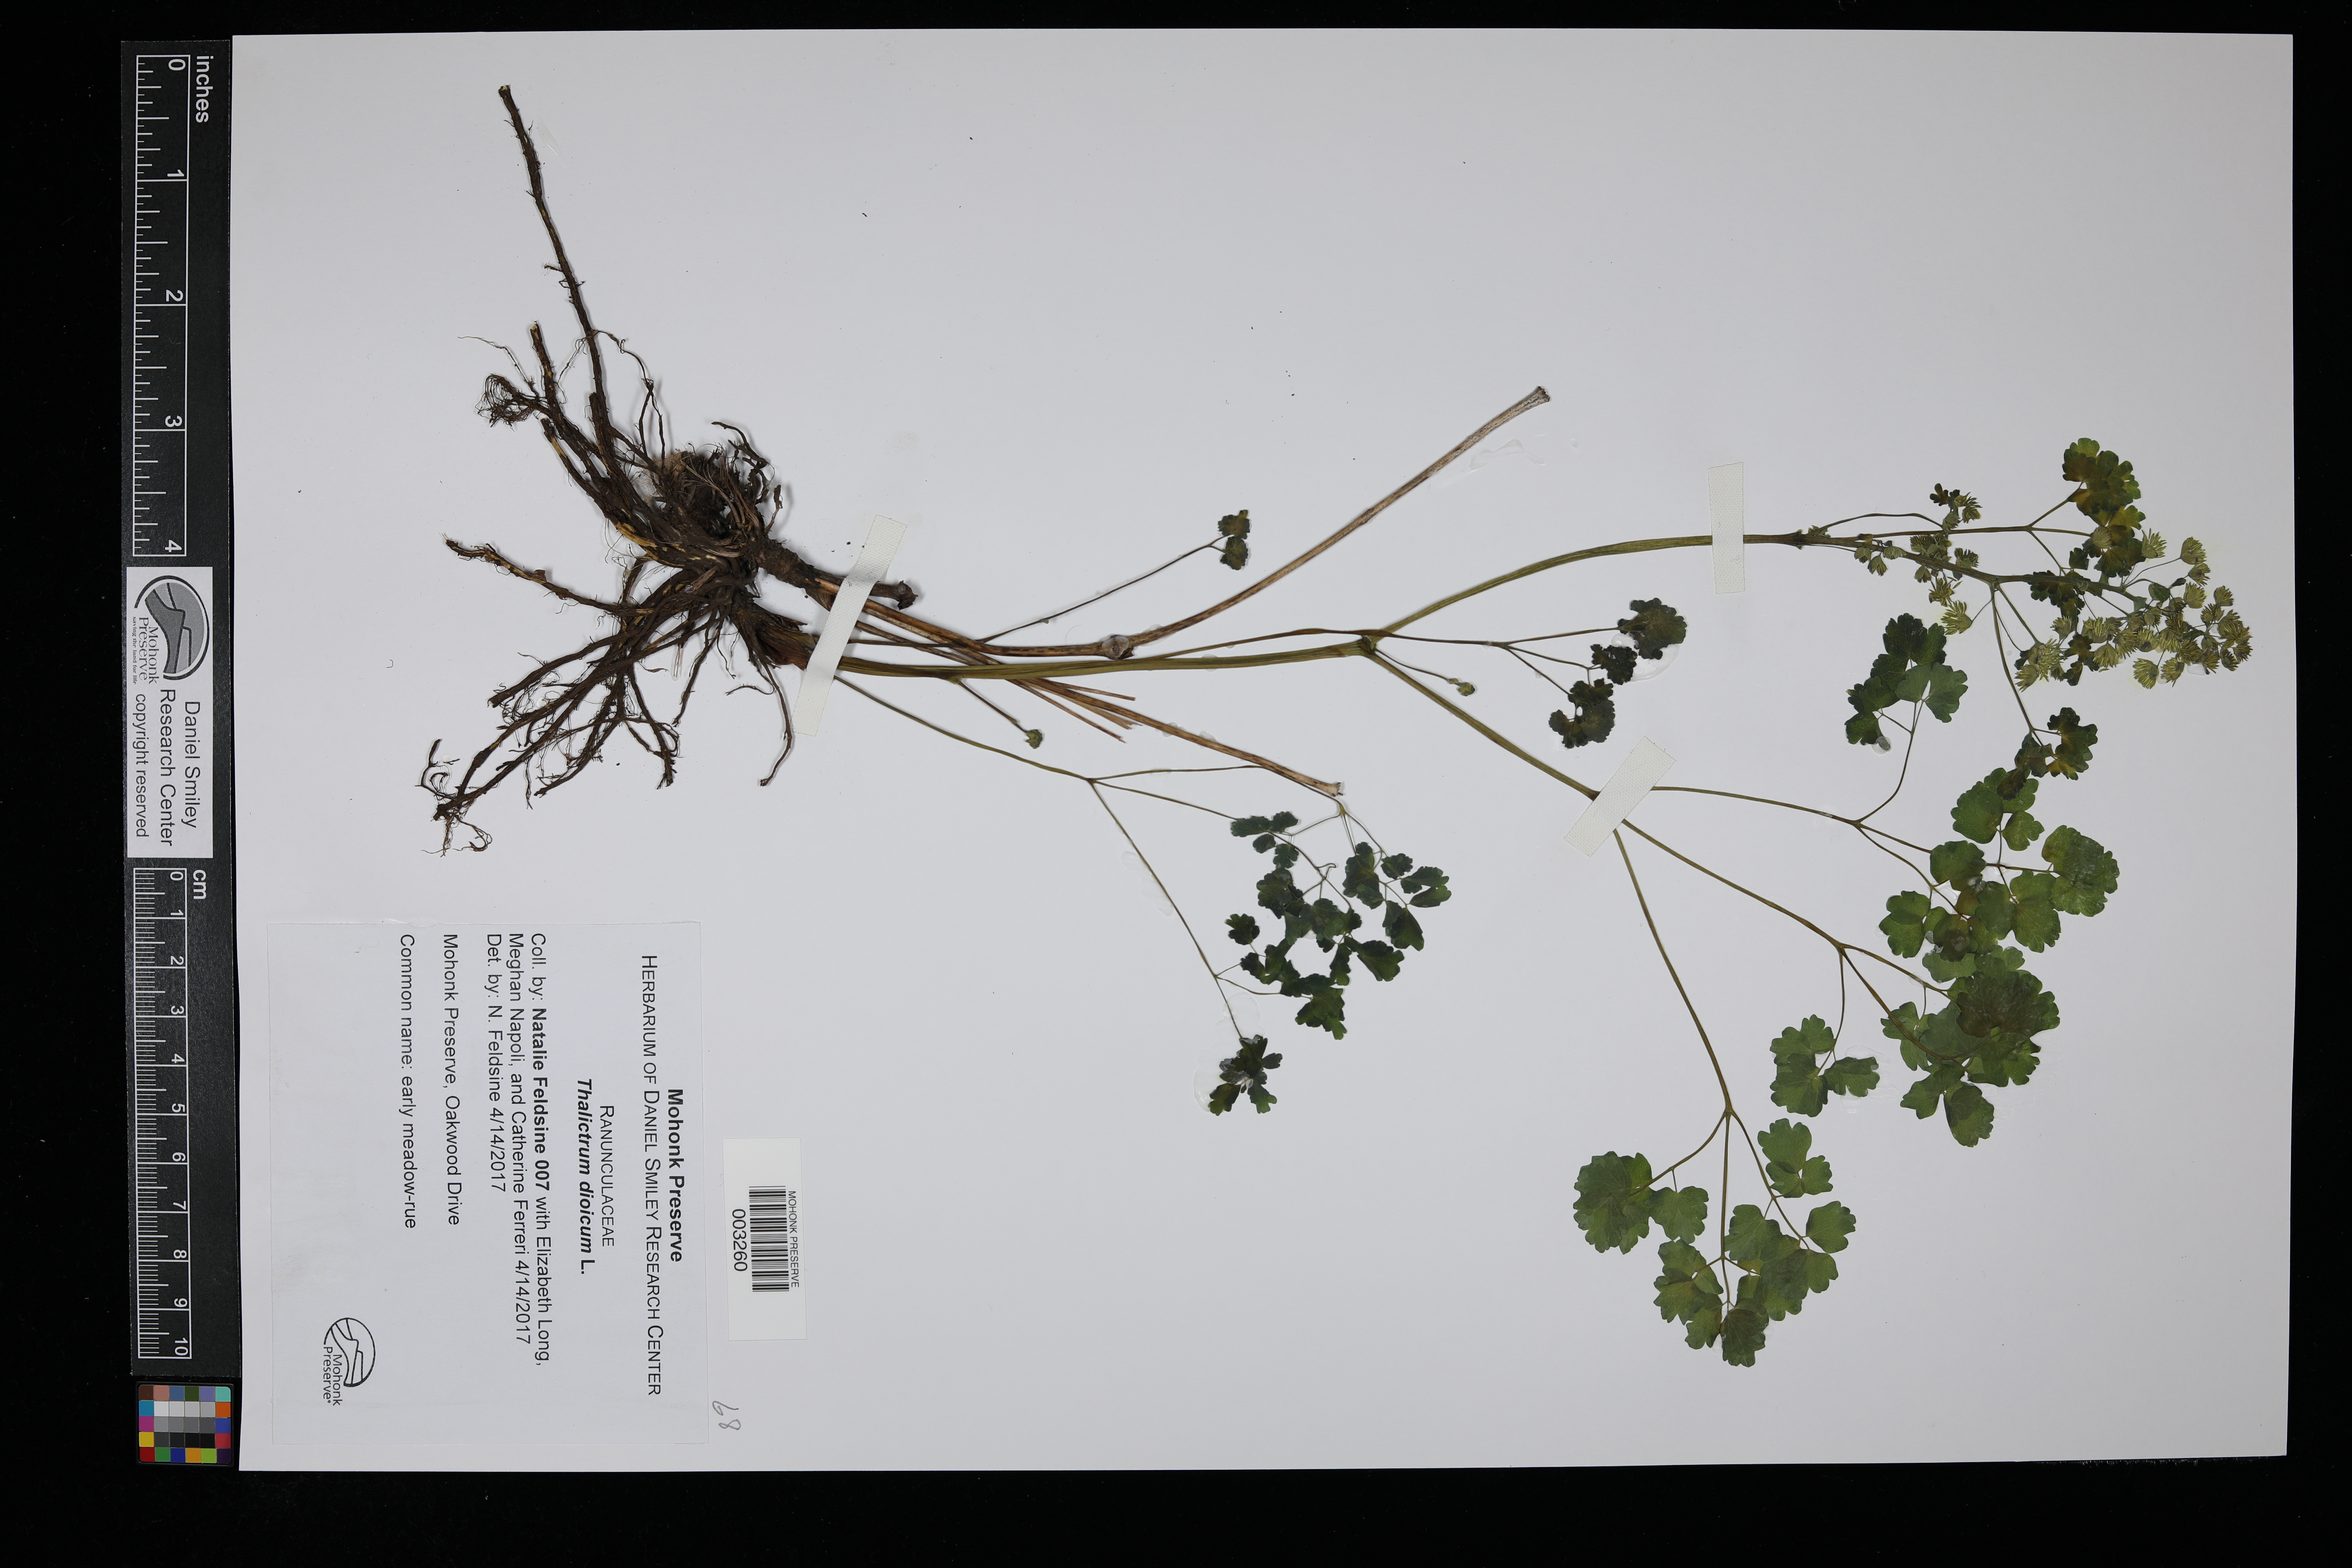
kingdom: Plantae
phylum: Tracheophyta
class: Magnoliopsida
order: Ranunculales
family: Ranunculaceae
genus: Thalictrum
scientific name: Thalictrum dioicum
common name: Early meadow-rue
